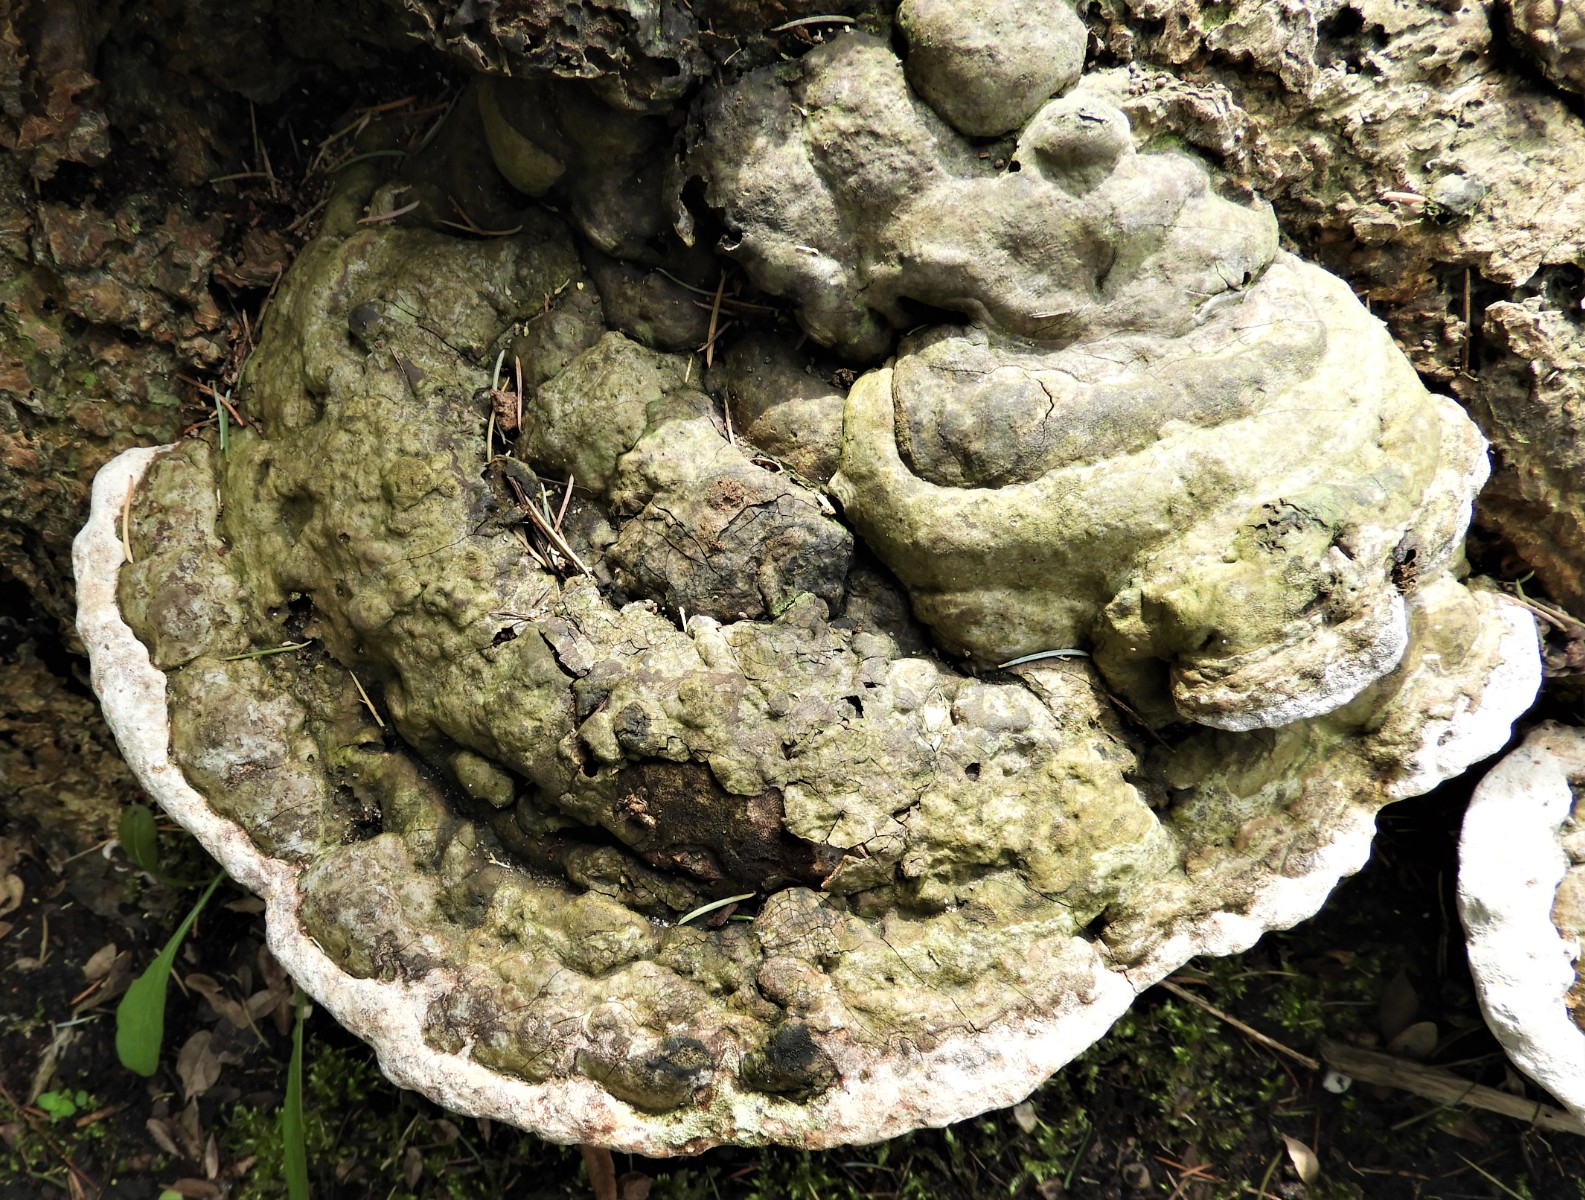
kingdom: Fungi
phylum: Basidiomycota
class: Agaricomycetes
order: Polyporales
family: Polyporaceae
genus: Ganoderma
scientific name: Ganoderma applanatum
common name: flad lakporesvamp
